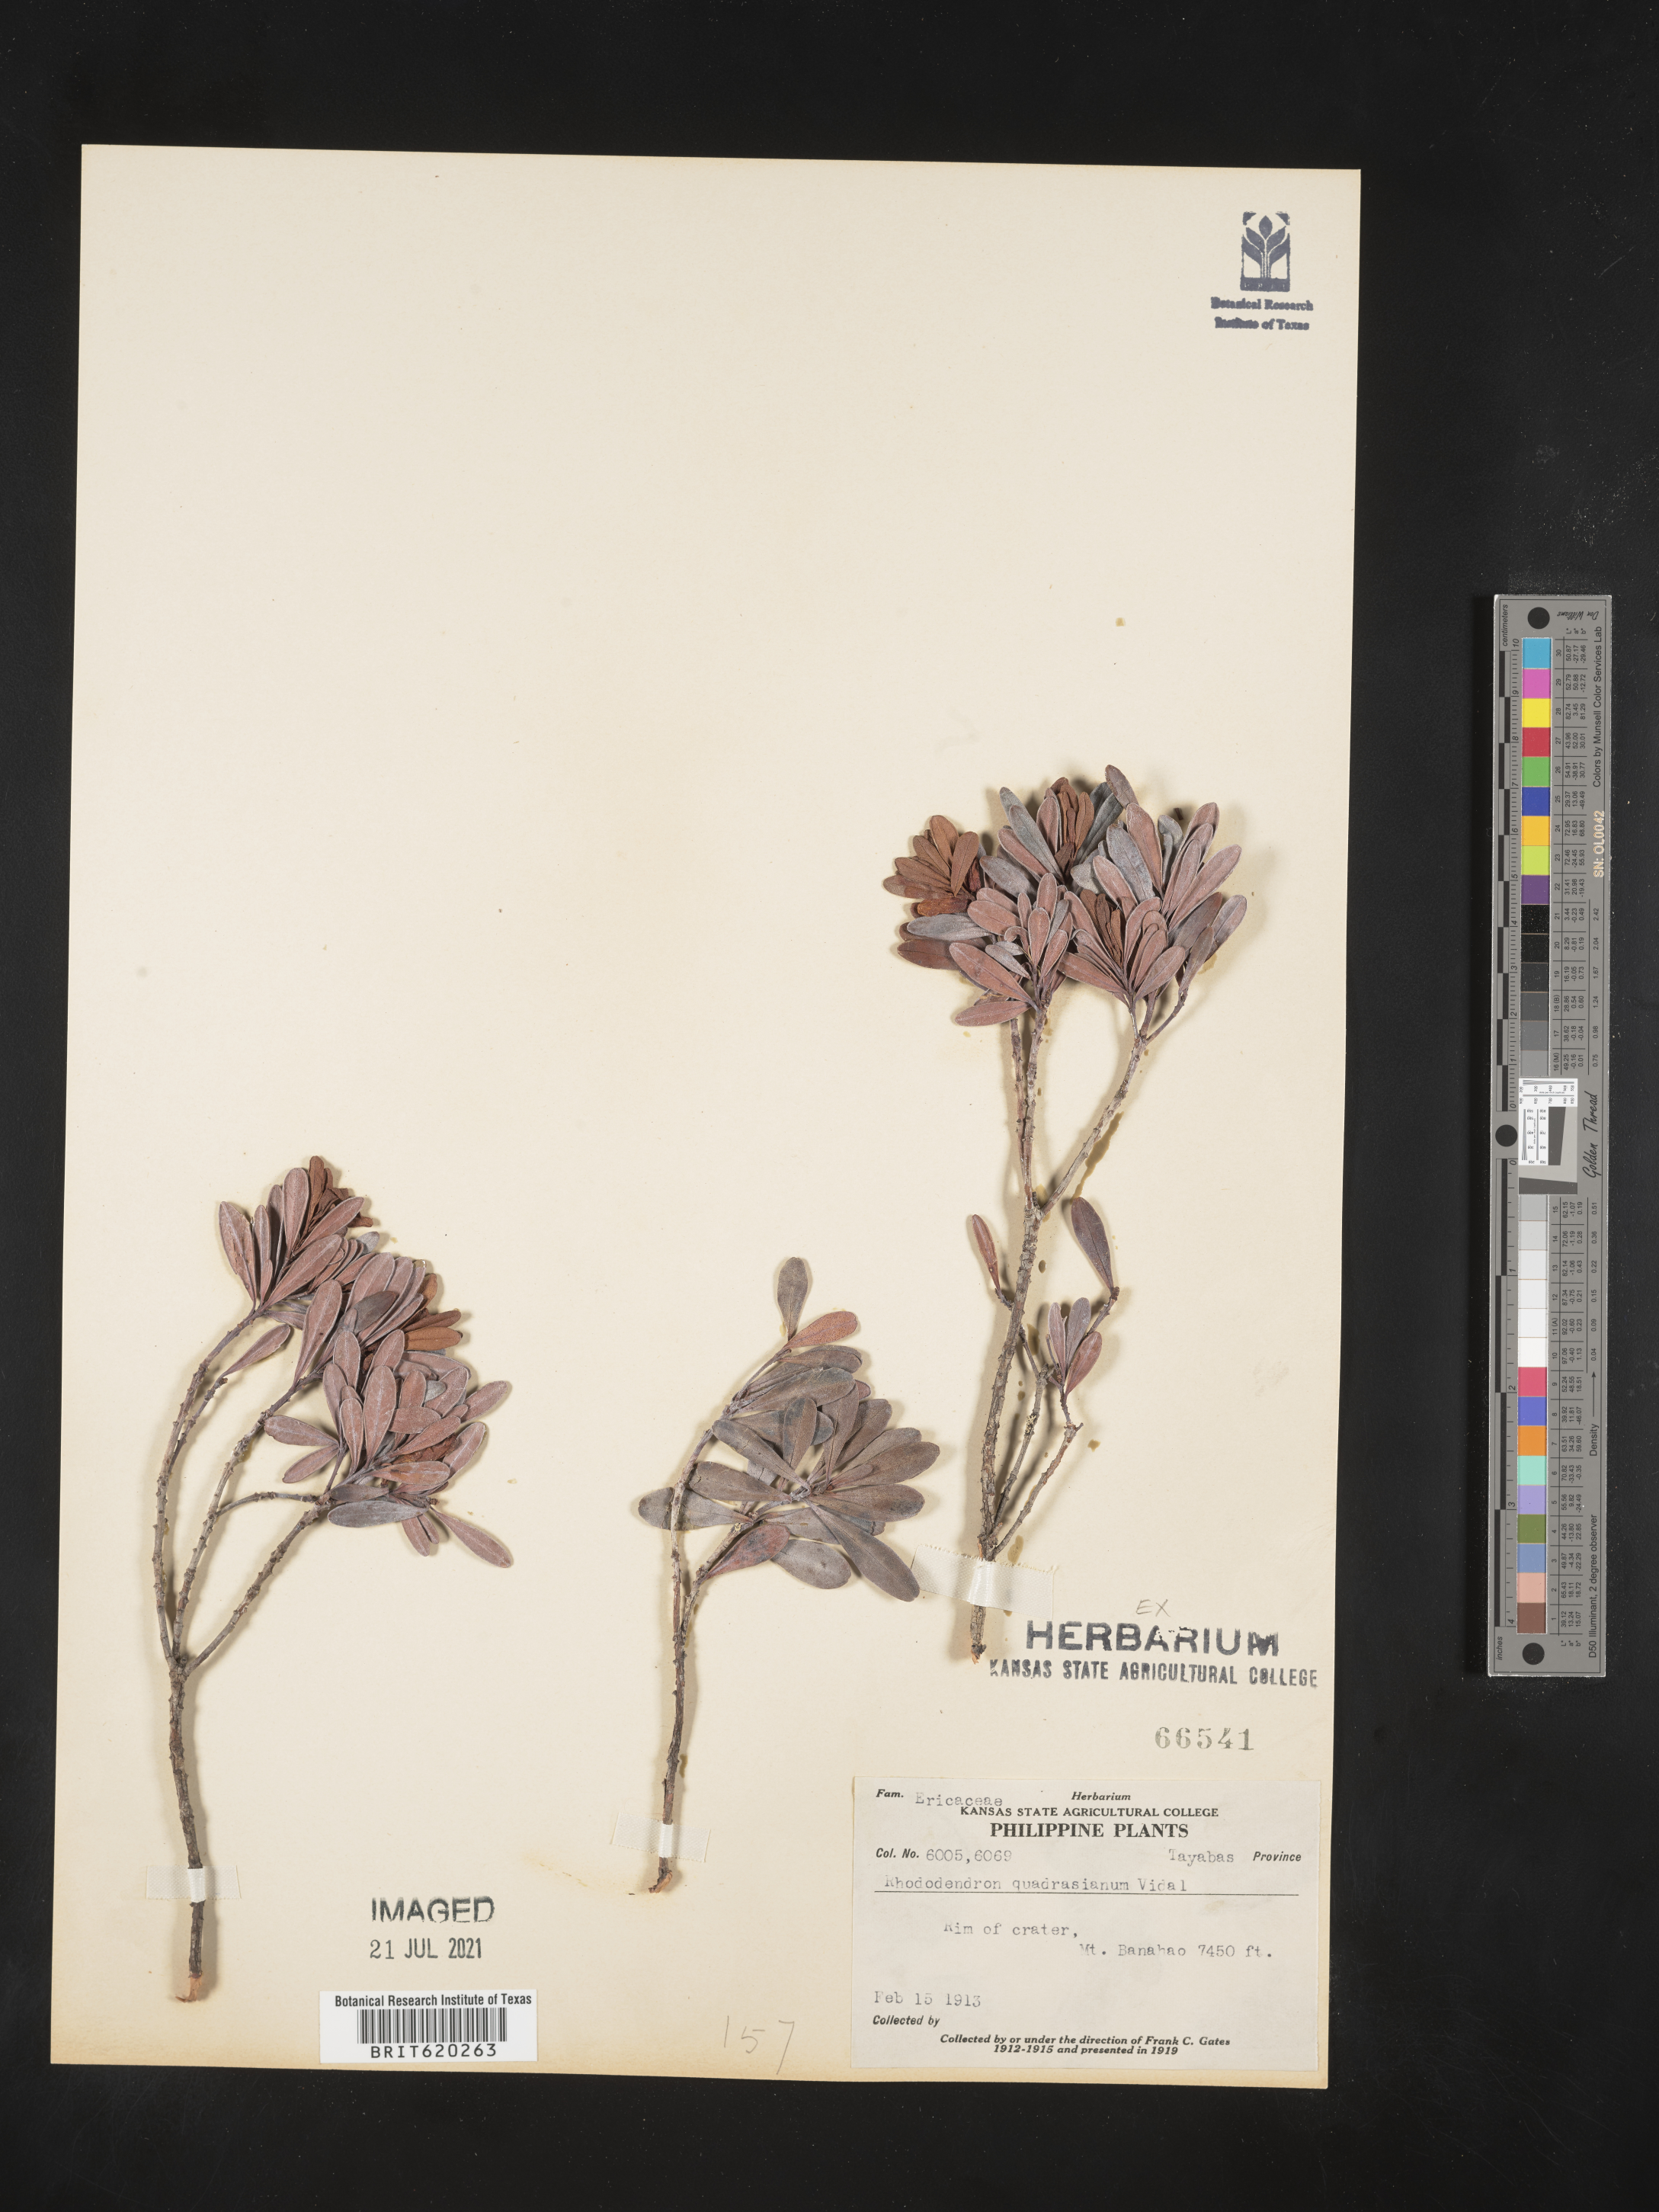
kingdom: Plantae
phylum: Tracheophyta
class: Magnoliopsida
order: Ericales
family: Ericaceae
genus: Rhododendron
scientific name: Rhododendron quadrasianum
